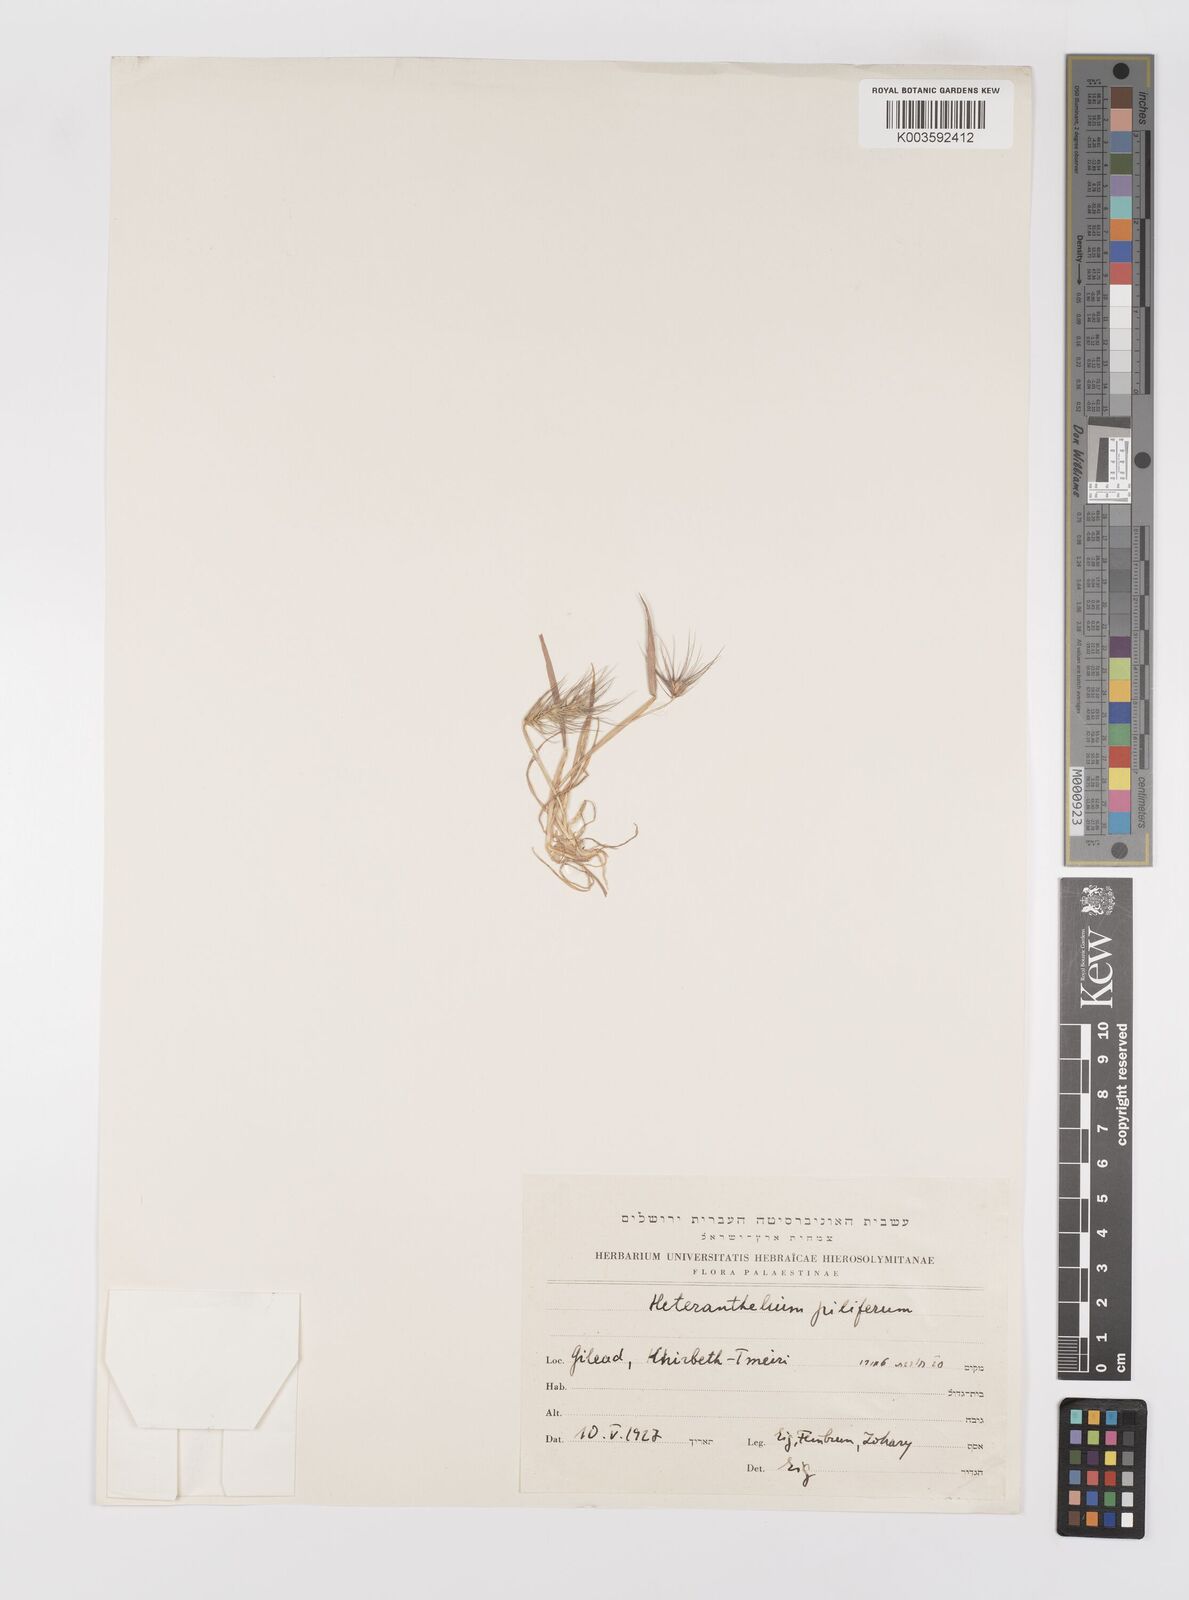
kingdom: Plantae
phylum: Tracheophyta
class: Liliopsida
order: Poales
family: Poaceae
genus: Heteranthelium
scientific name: Heteranthelium piliferum
